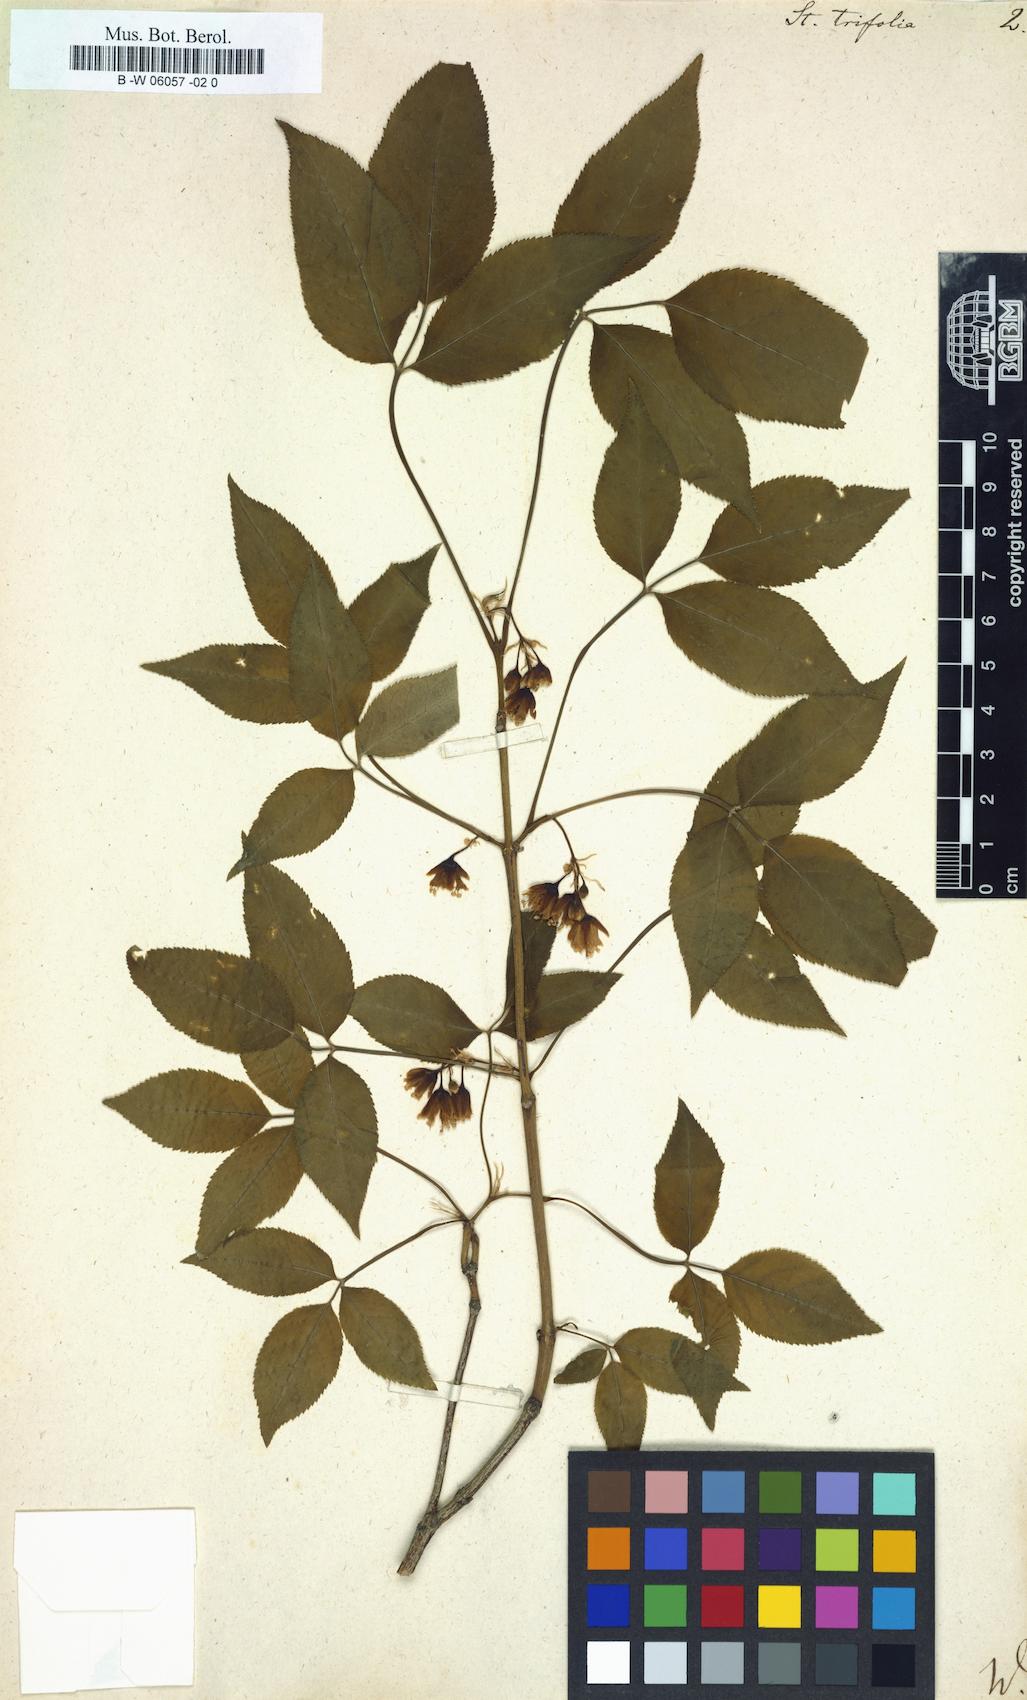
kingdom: Plantae
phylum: Tracheophyta
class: Magnoliopsida
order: Crossosomatales
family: Staphyleaceae
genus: Staphylea
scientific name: Staphylea trifolia
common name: American bladdernut
